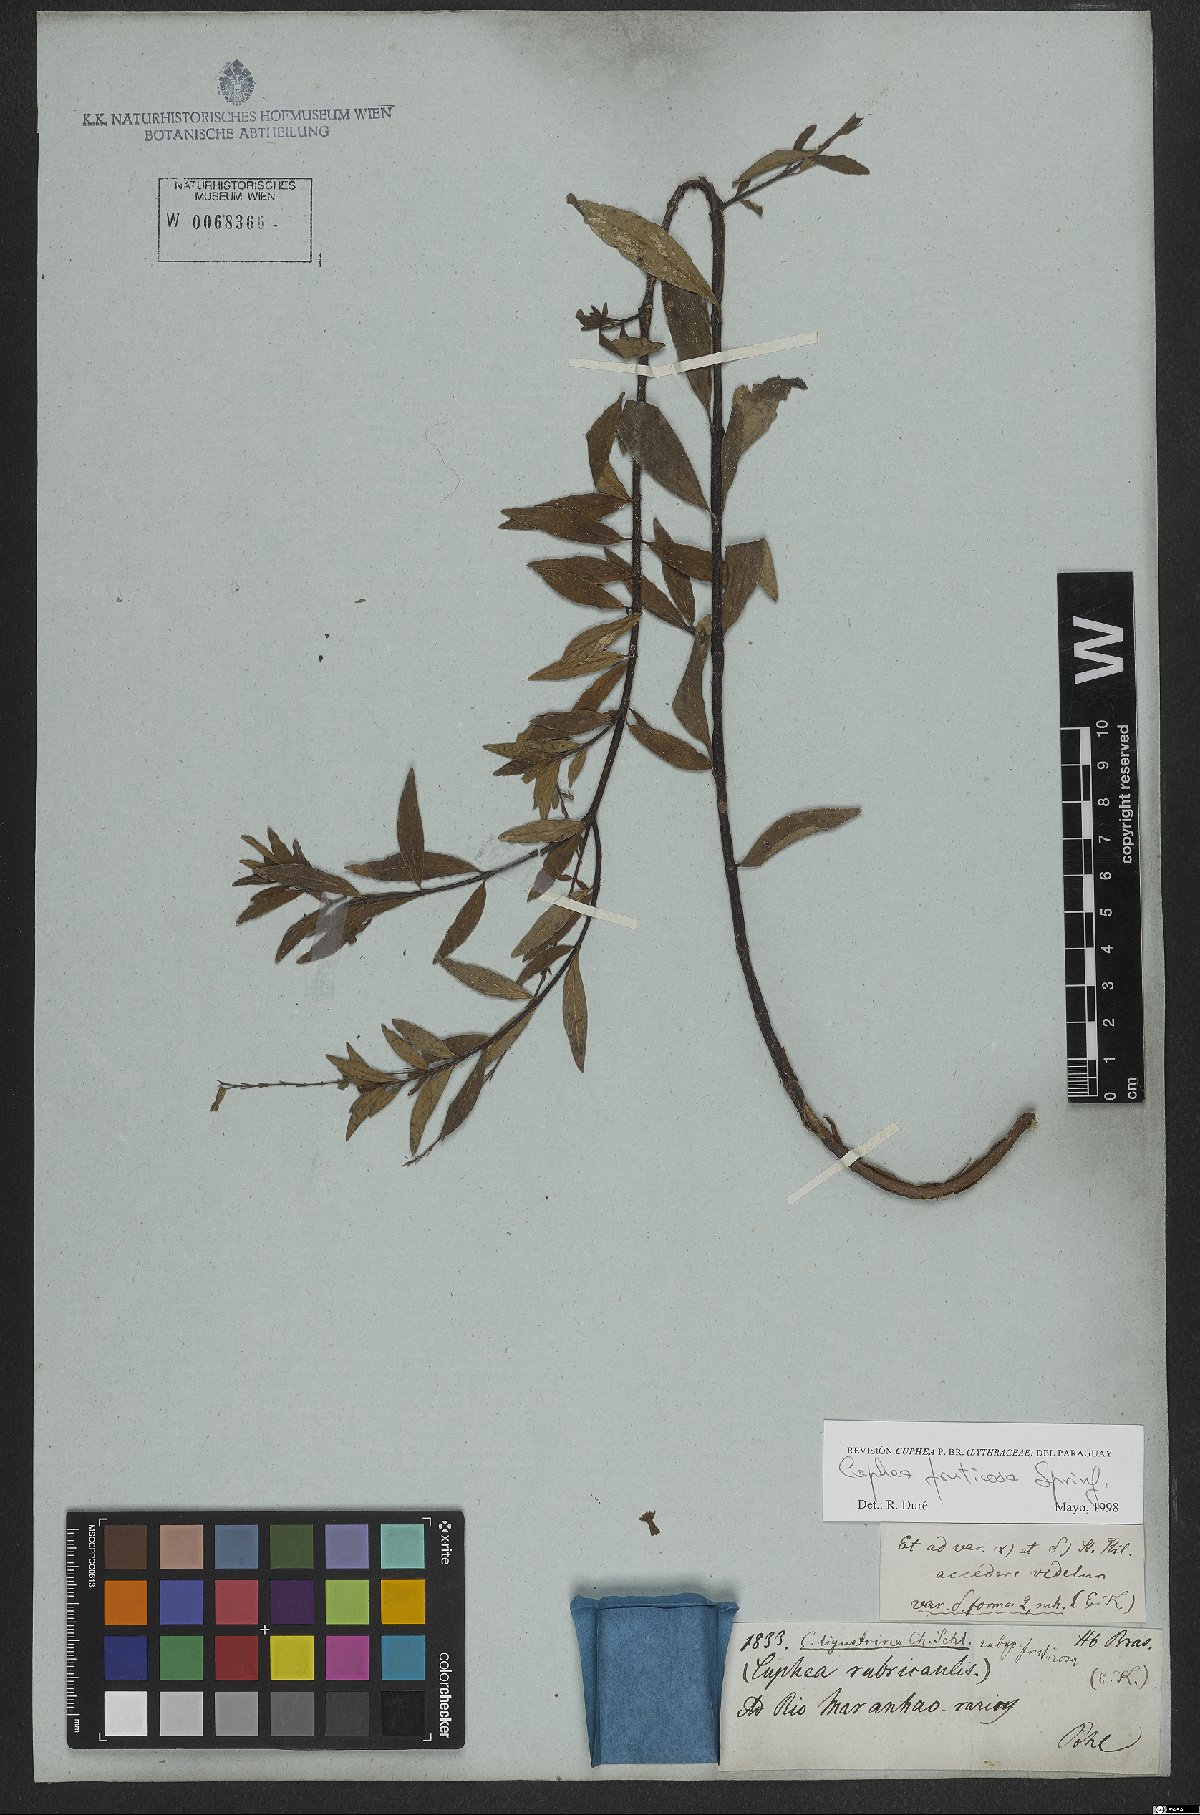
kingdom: Plantae
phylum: Tracheophyta
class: Magnoliopsida
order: Myrtales
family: Lythraceae
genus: Cuphea
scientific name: Cuphea fruticosa
